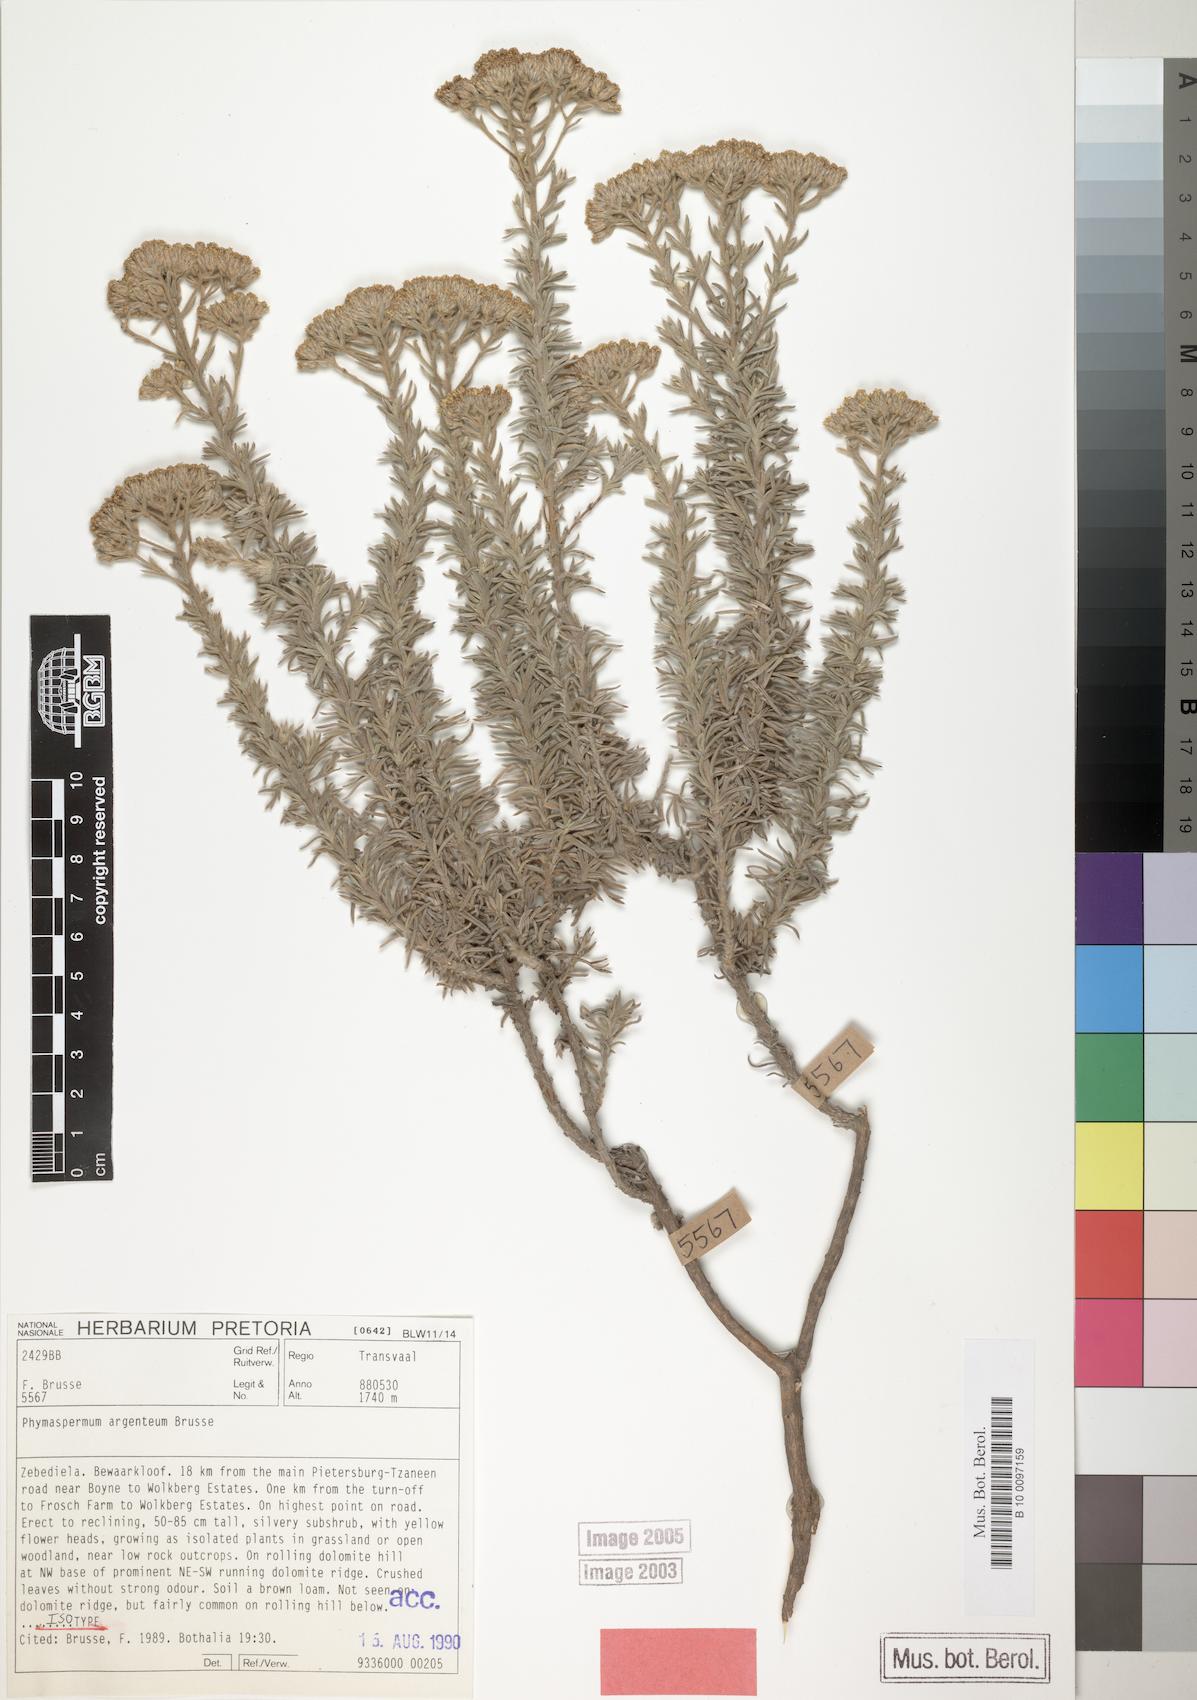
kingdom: Plantae
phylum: Tracheophyta
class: Magnoliopsida
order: Asterales
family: Asteraceae
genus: Phymaspermum
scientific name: Phymaspermum argenteum
